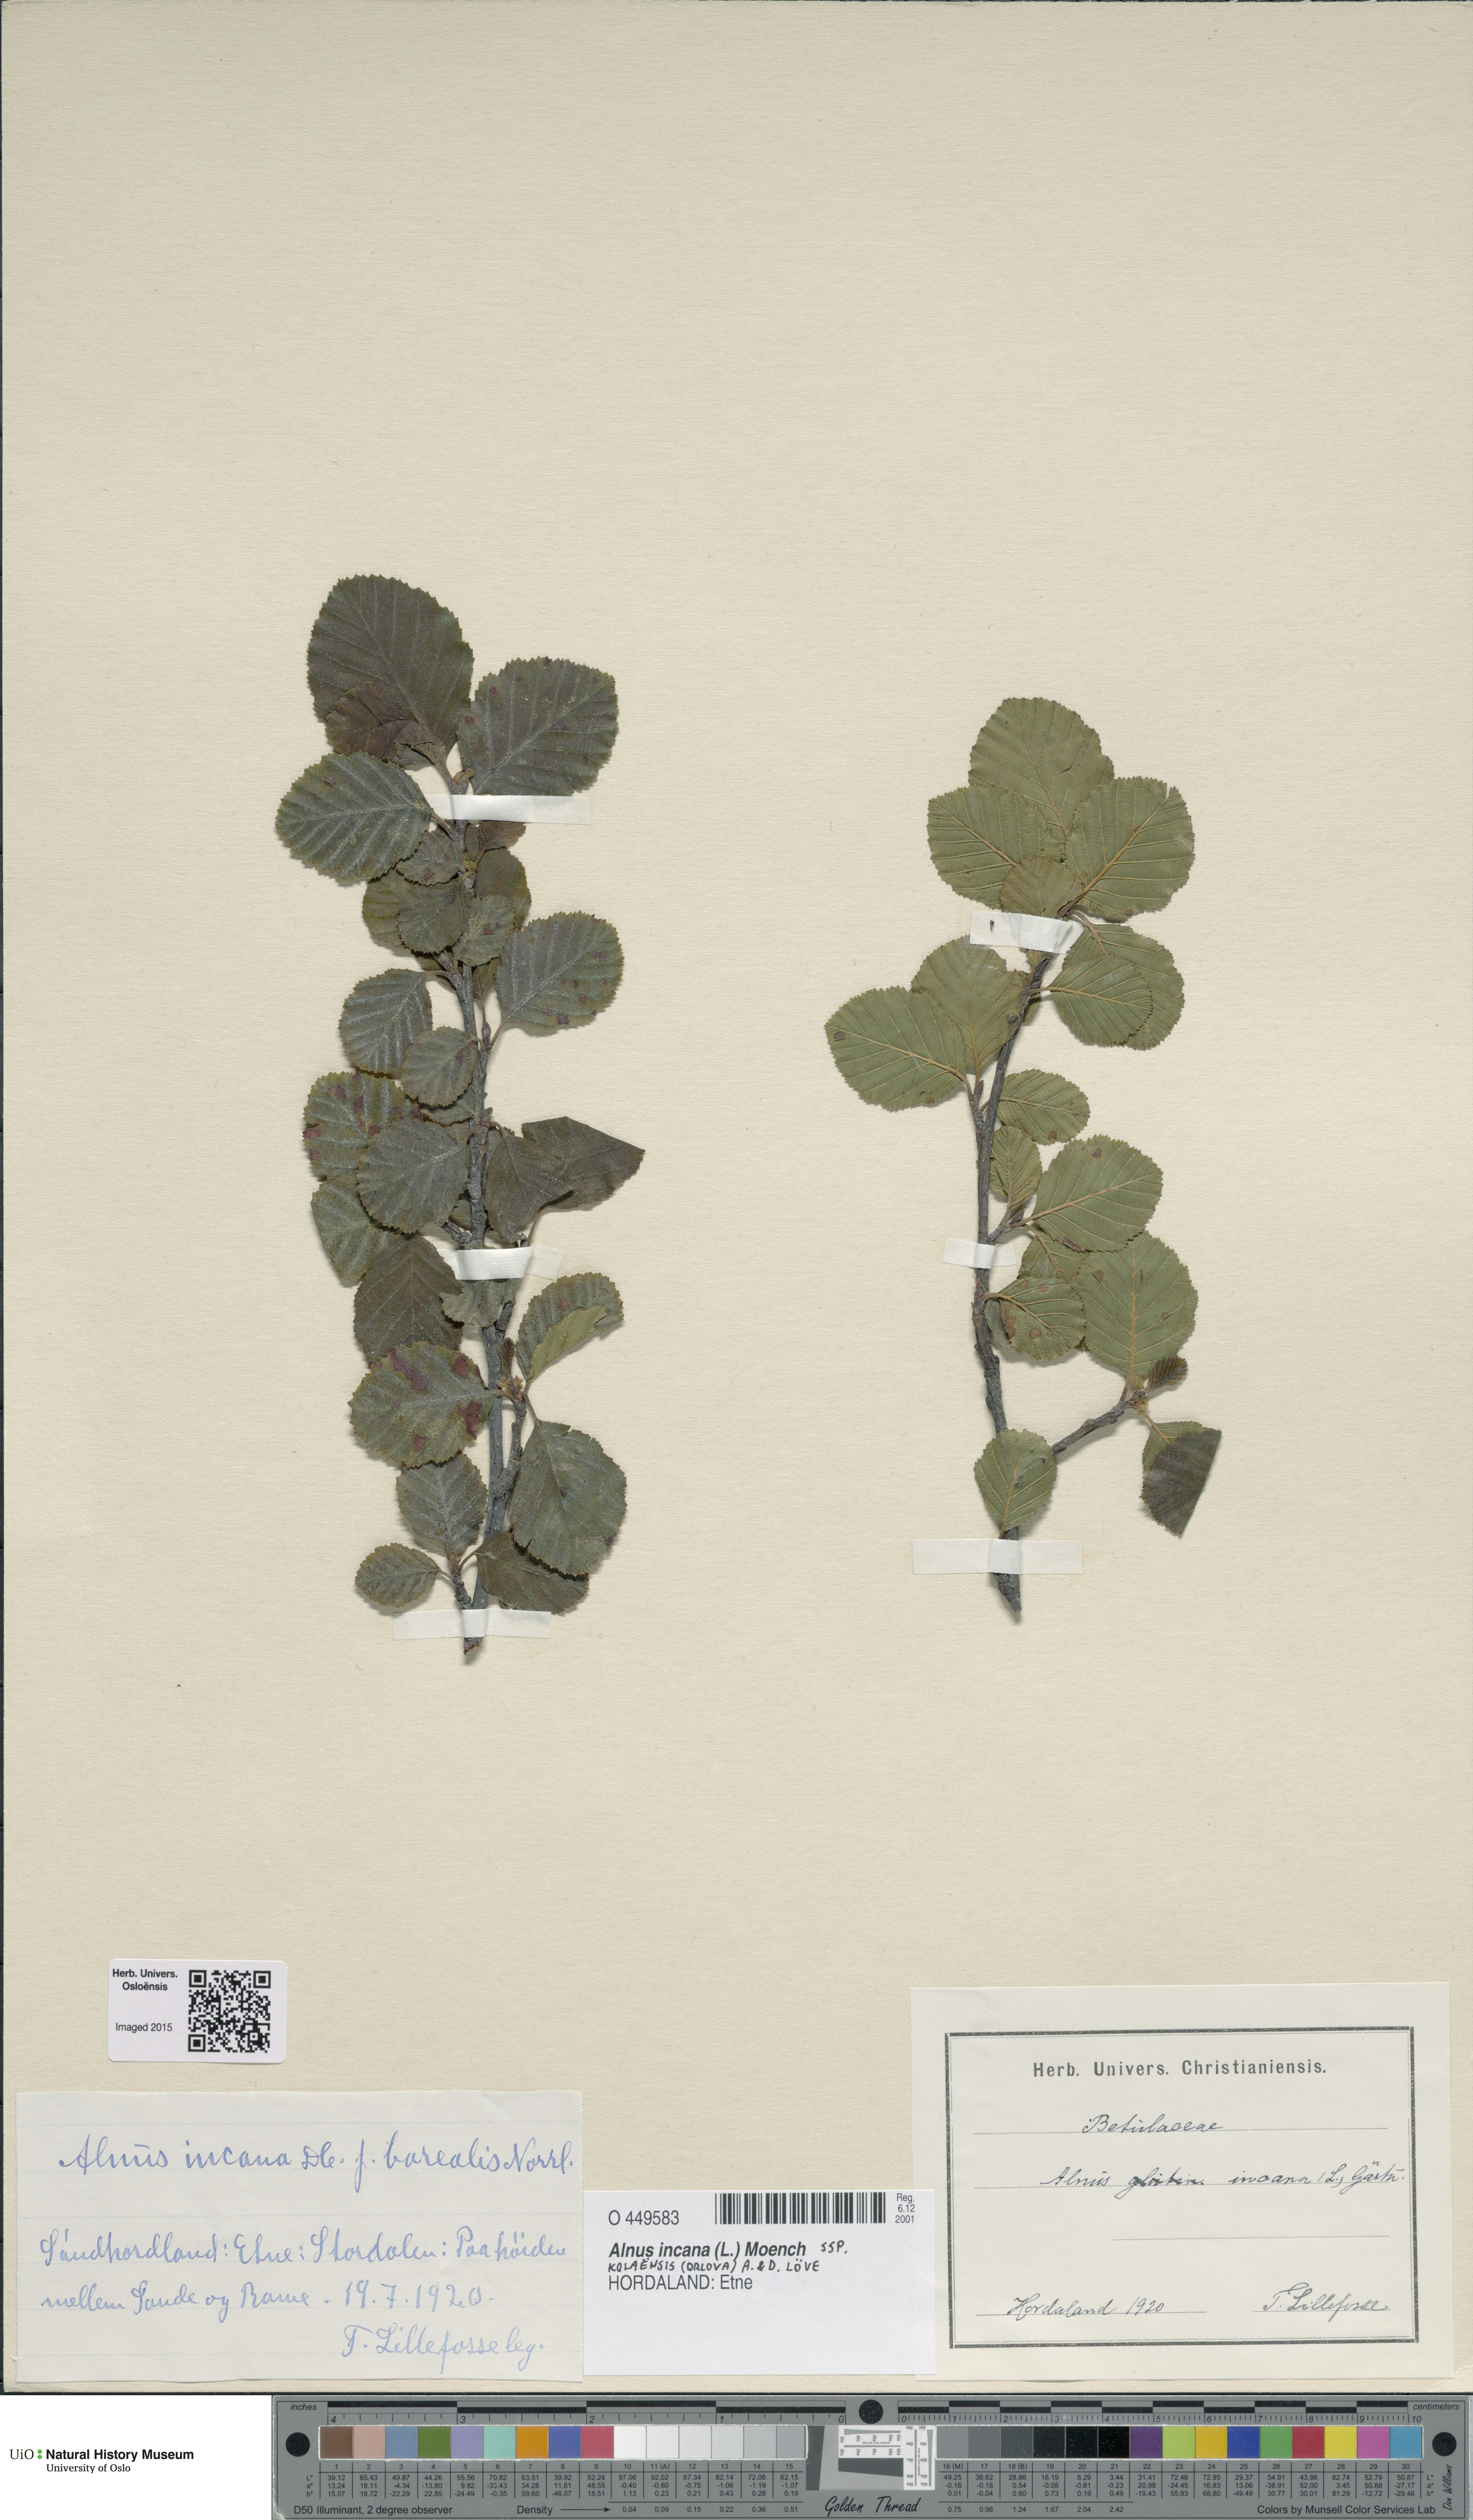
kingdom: Plantae
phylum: Tracheophyta
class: Magnoliopsida
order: Fagales
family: Betulaceae
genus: Alnus
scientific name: Alnus incana
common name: Grey alder
